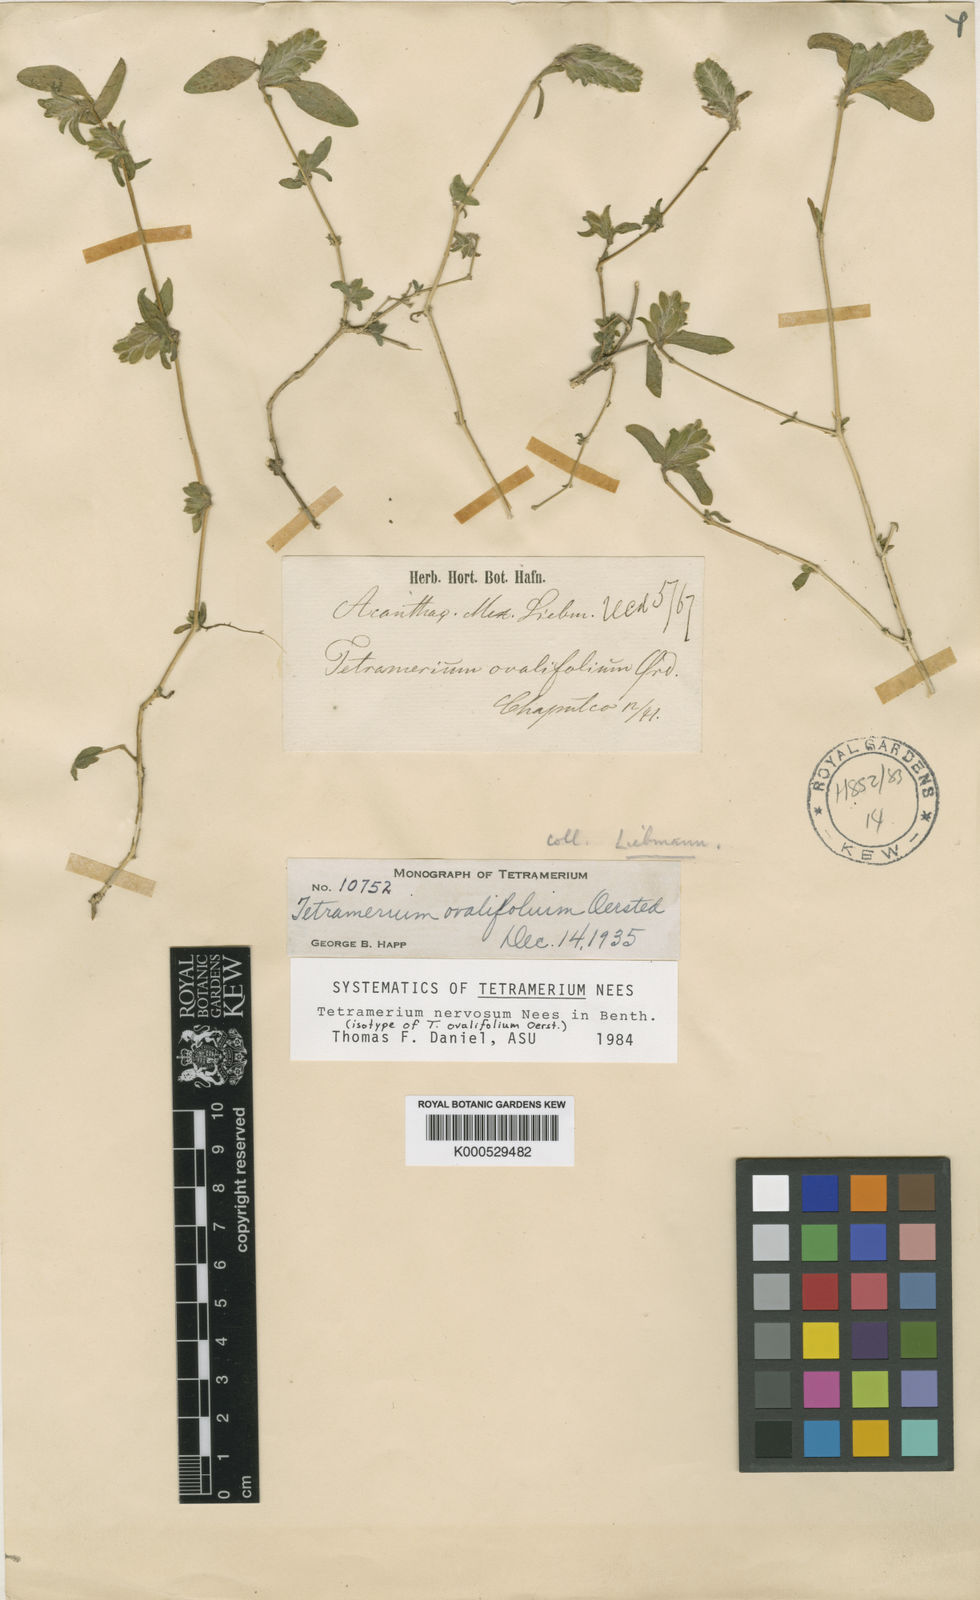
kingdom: Plantae
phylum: Tracheophyta
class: Magnoliopsida
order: Lamiales
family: Acanthaceae
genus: Tetramerium
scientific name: Tetramerium nervosum
